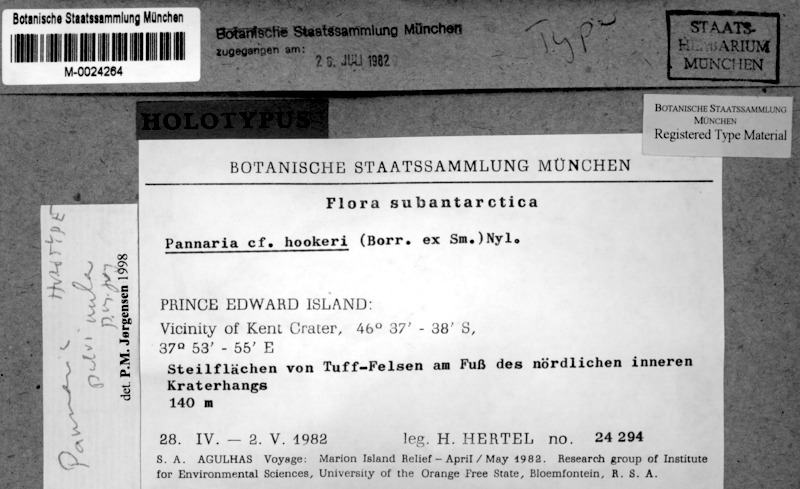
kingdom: Fungi
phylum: Ascomycota
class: Lecanoromycetes
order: Peltigerales
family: Pannariaceae
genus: Pannaria
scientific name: Pannaria pulvinula
